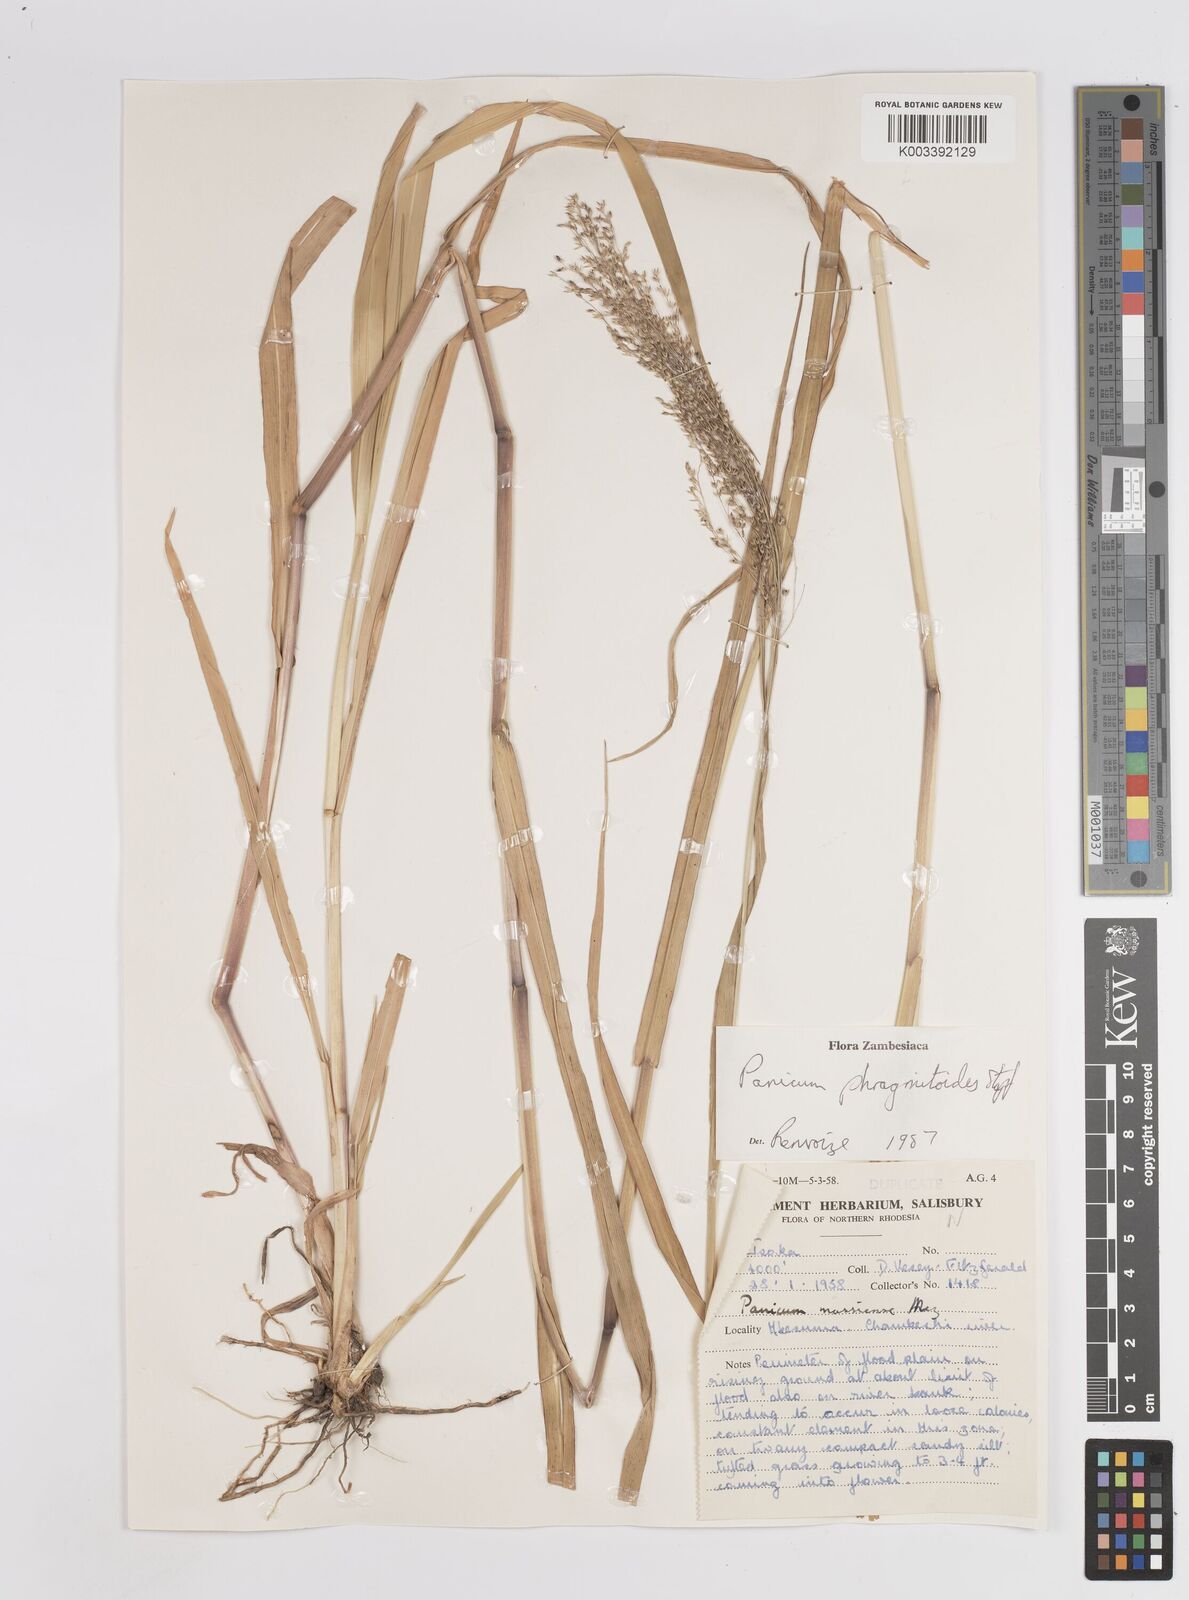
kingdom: Plantae
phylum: Tracheophyta
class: Liliopsida
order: Poales
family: Poaceae
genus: Panicum
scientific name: Panicum phragmitoides
